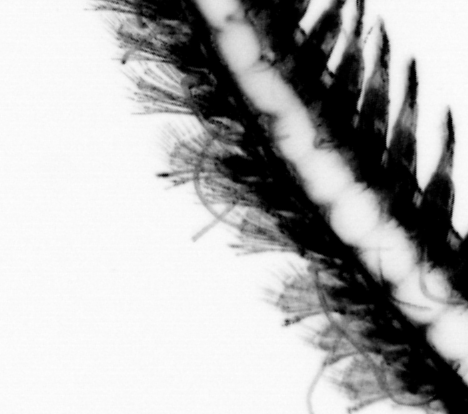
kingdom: Animalia
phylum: Annelida
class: Polychaeta
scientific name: Polychaeta
